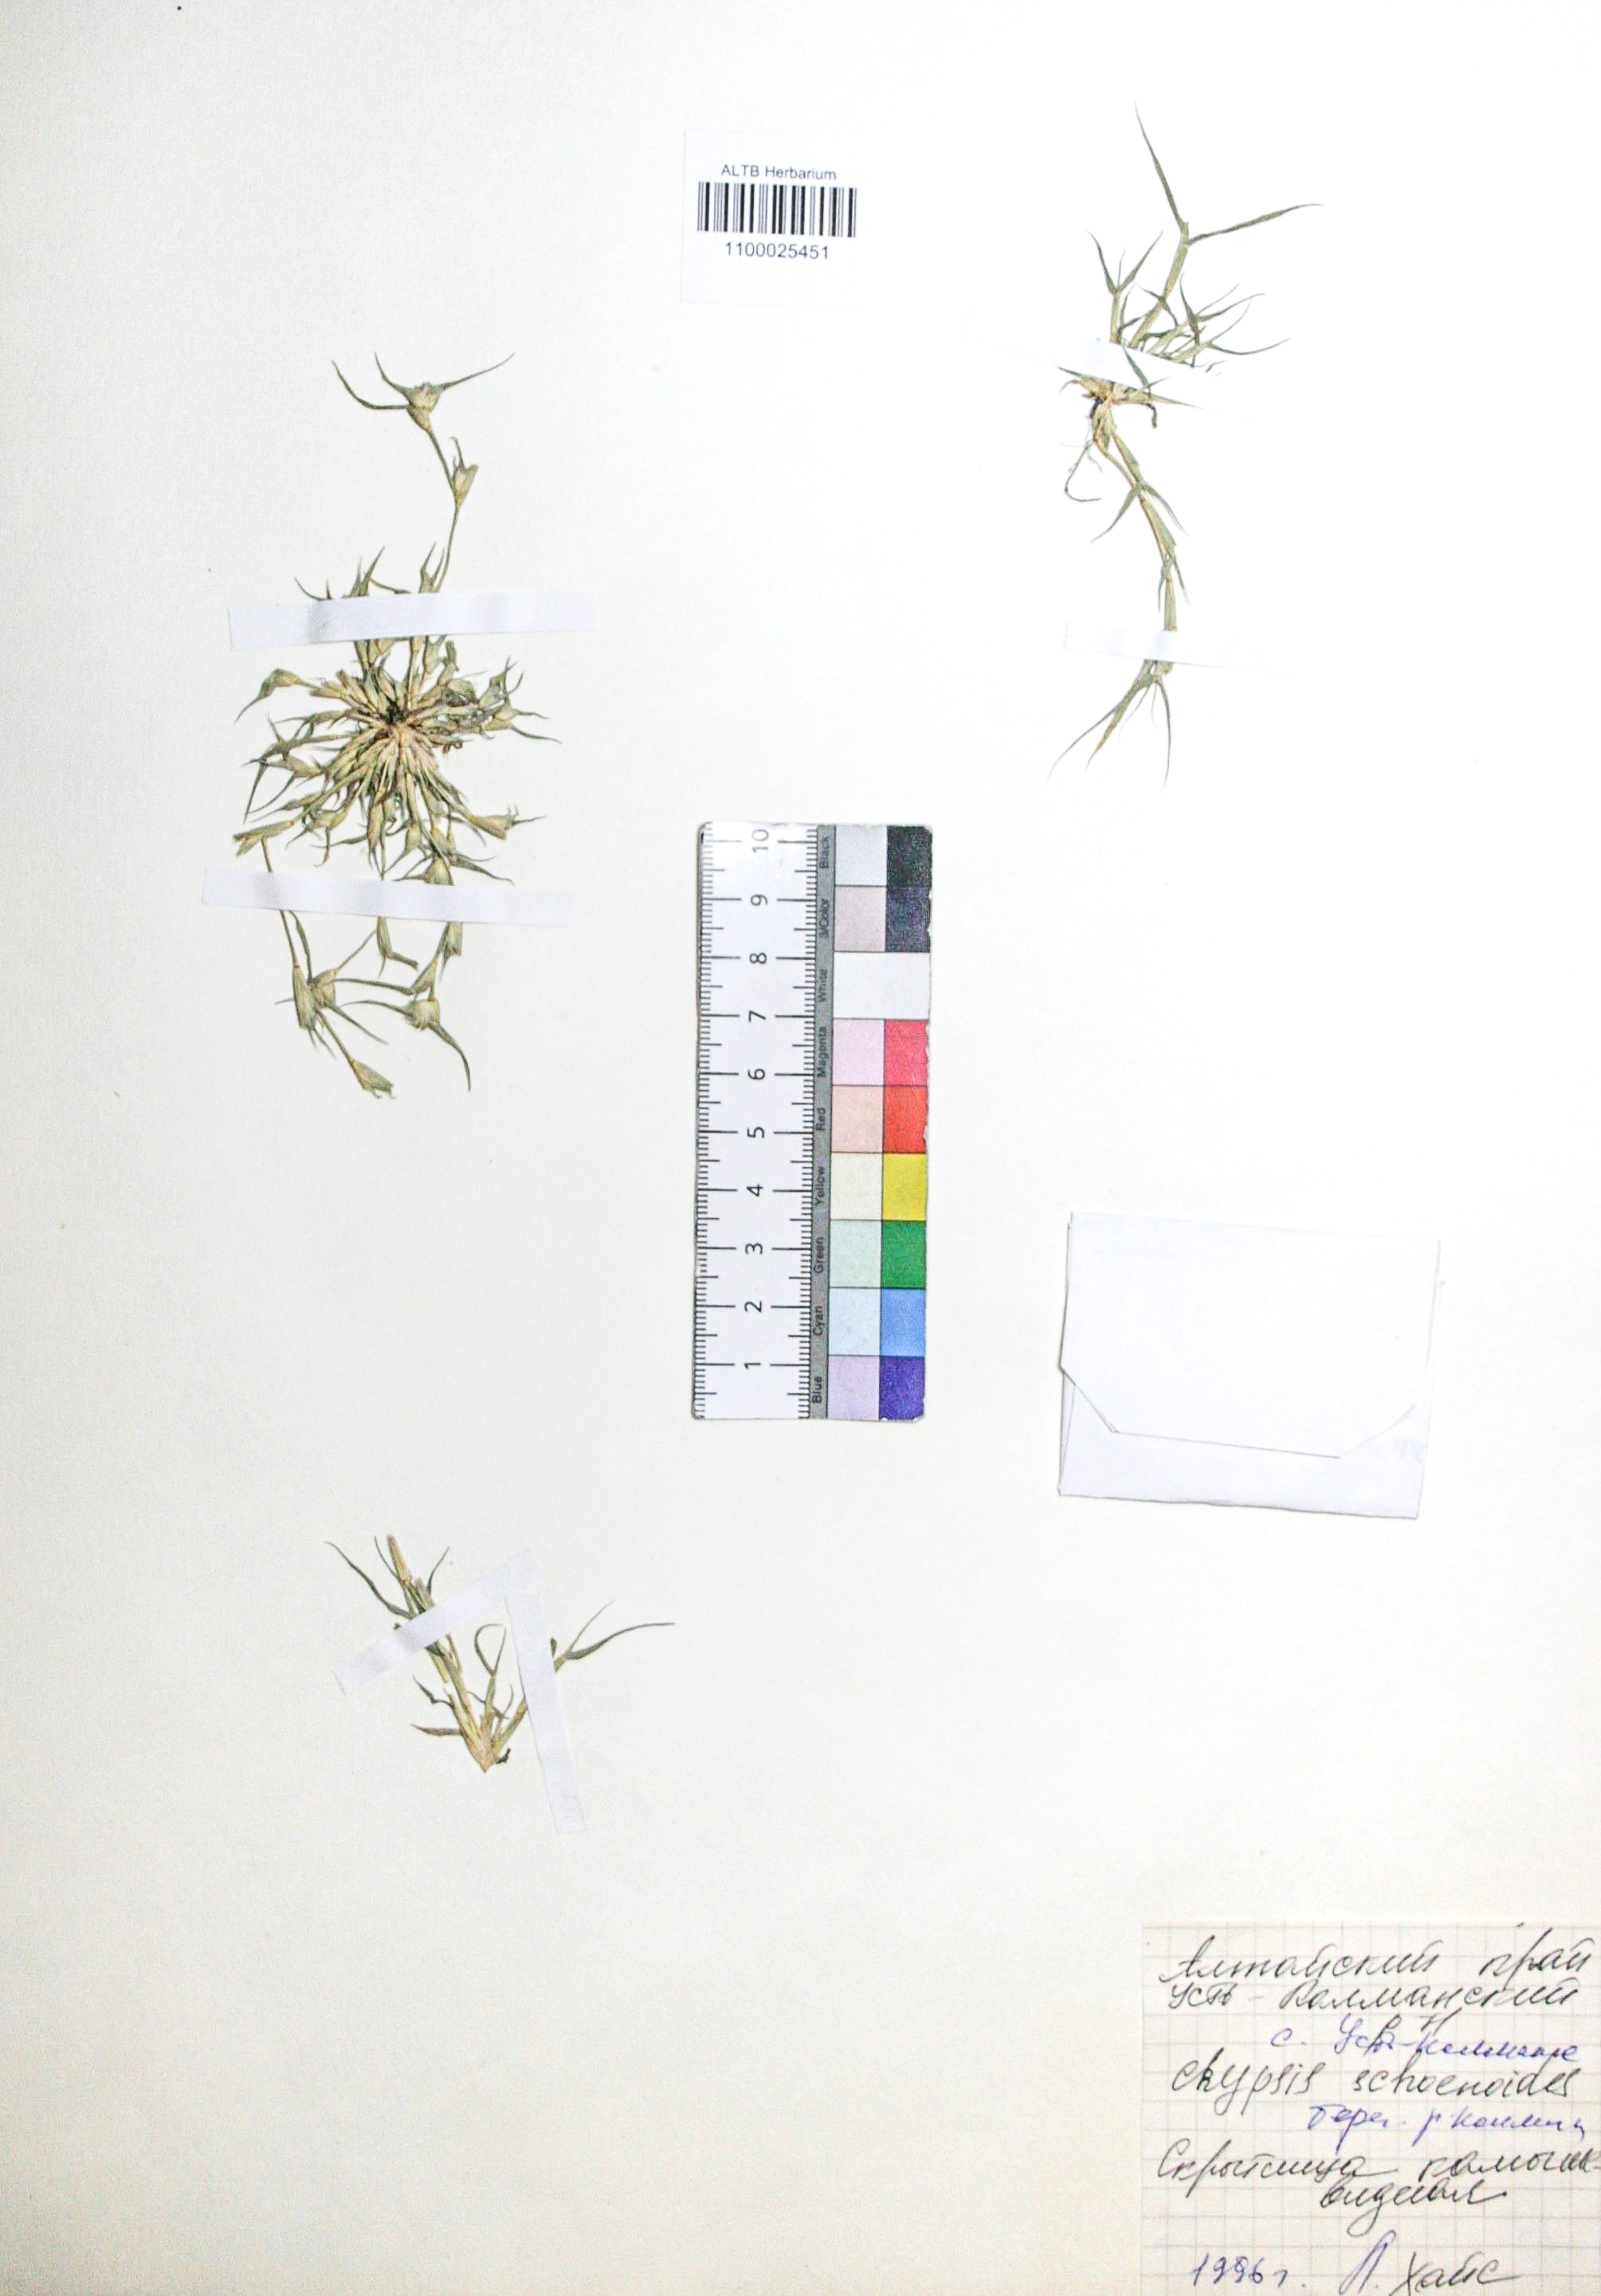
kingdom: Plantae
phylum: Tracheophyta
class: Liliopsida
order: Poales
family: Poaceae
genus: Sporobolus
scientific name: Sporobolus aculeatus
